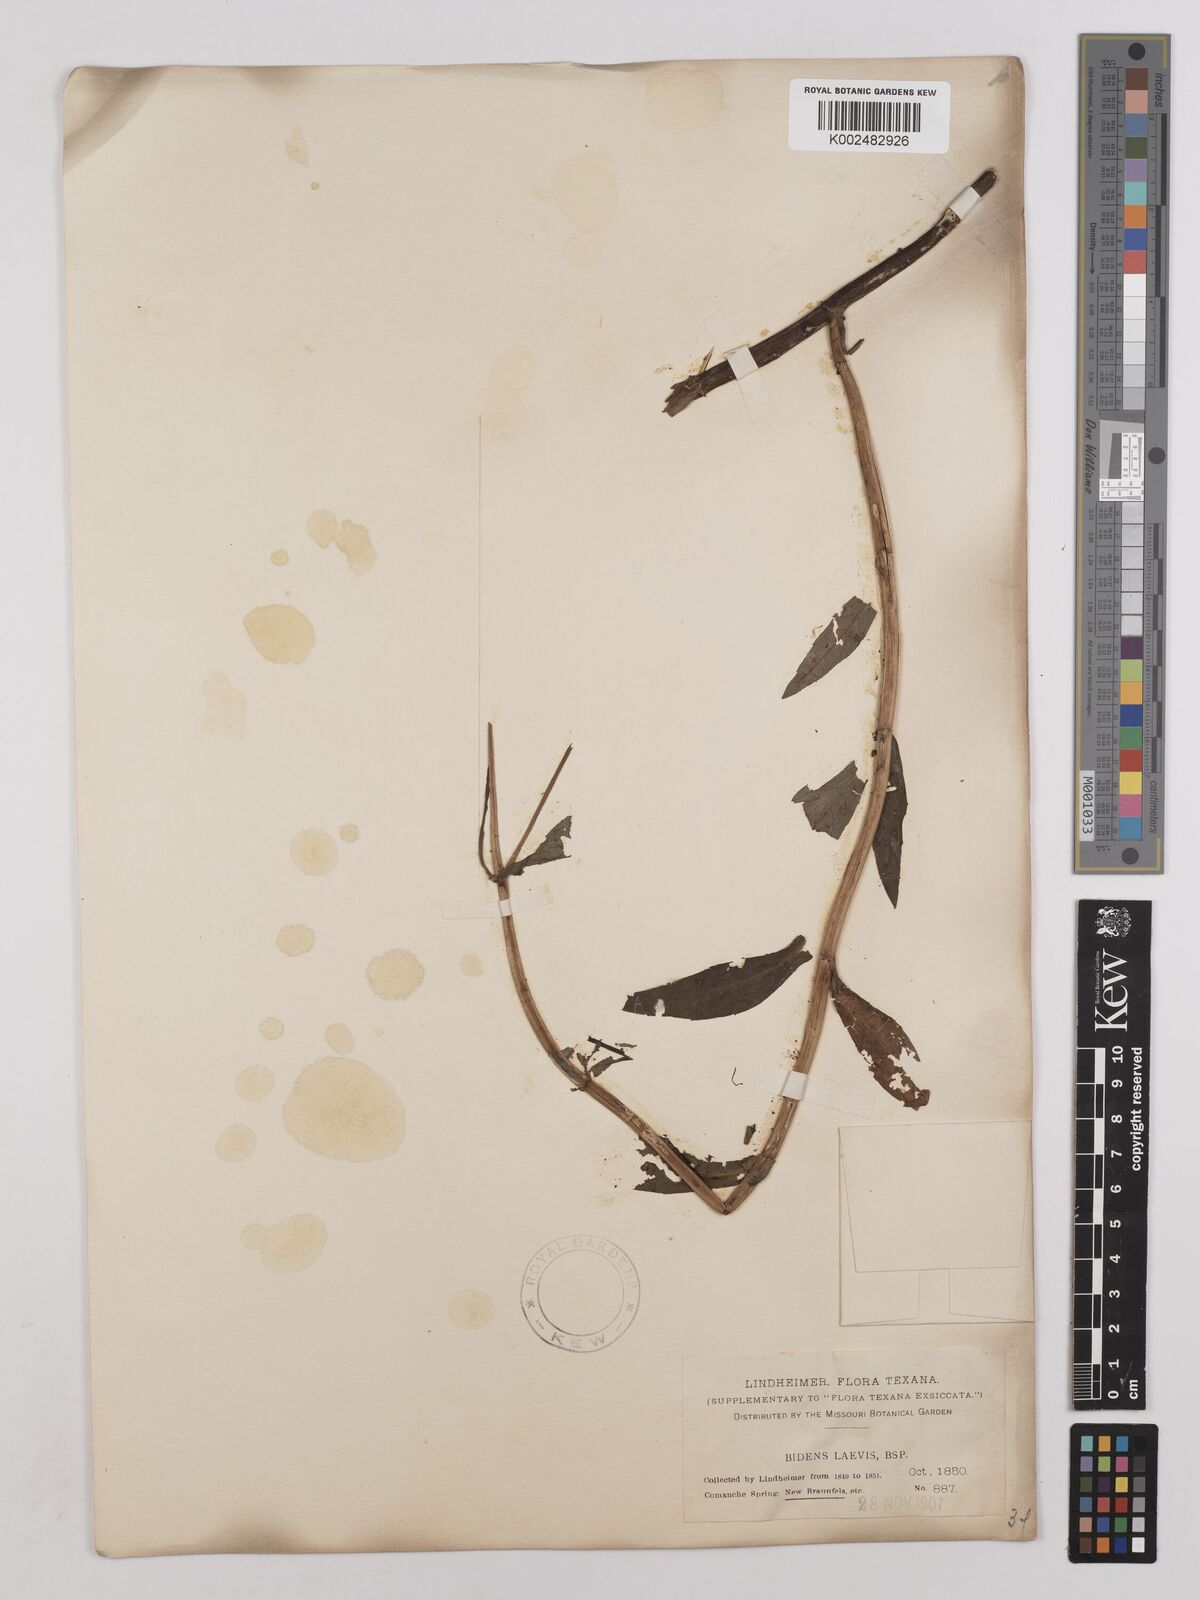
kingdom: Plantae
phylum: Tracheophyta
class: Magnoliopsida
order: Asterales
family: Asteraceae
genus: Bidens
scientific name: Bidens
